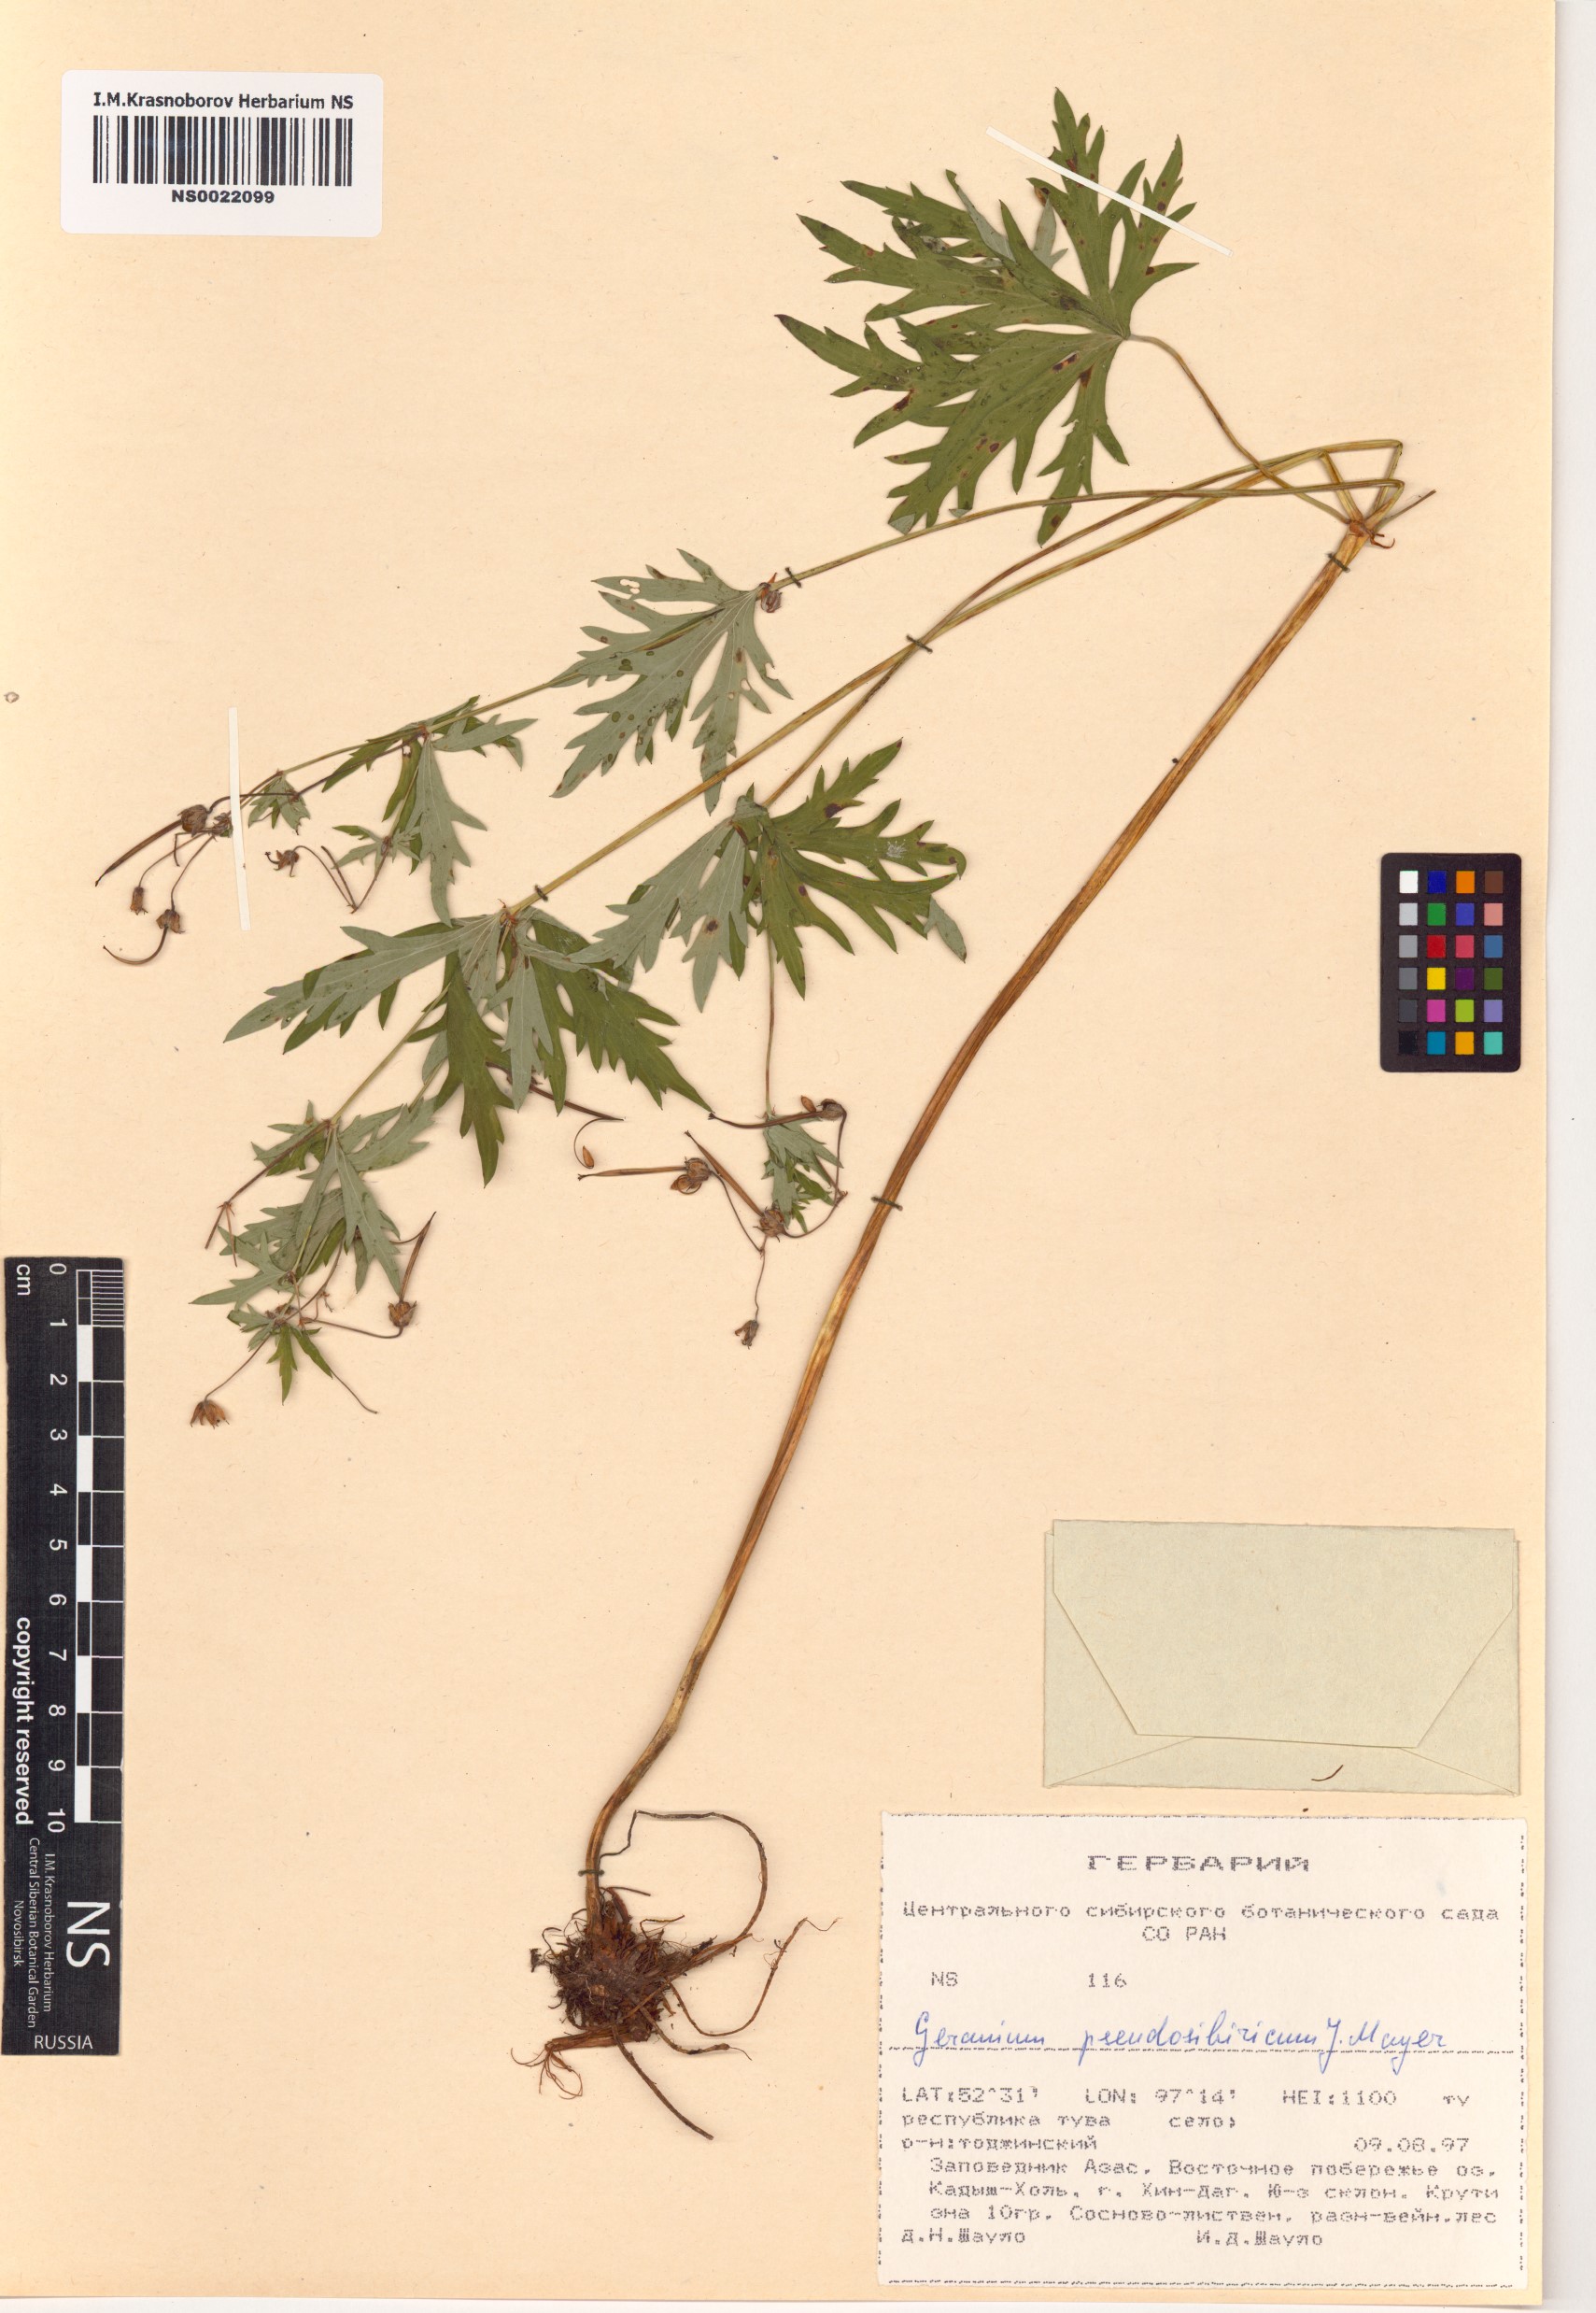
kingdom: Plantae
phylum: Tracheophyta
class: Magnoliopsida
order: Geraniales
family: Geraniaceae
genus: Geranium
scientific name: Geranium pseudosibiricum
